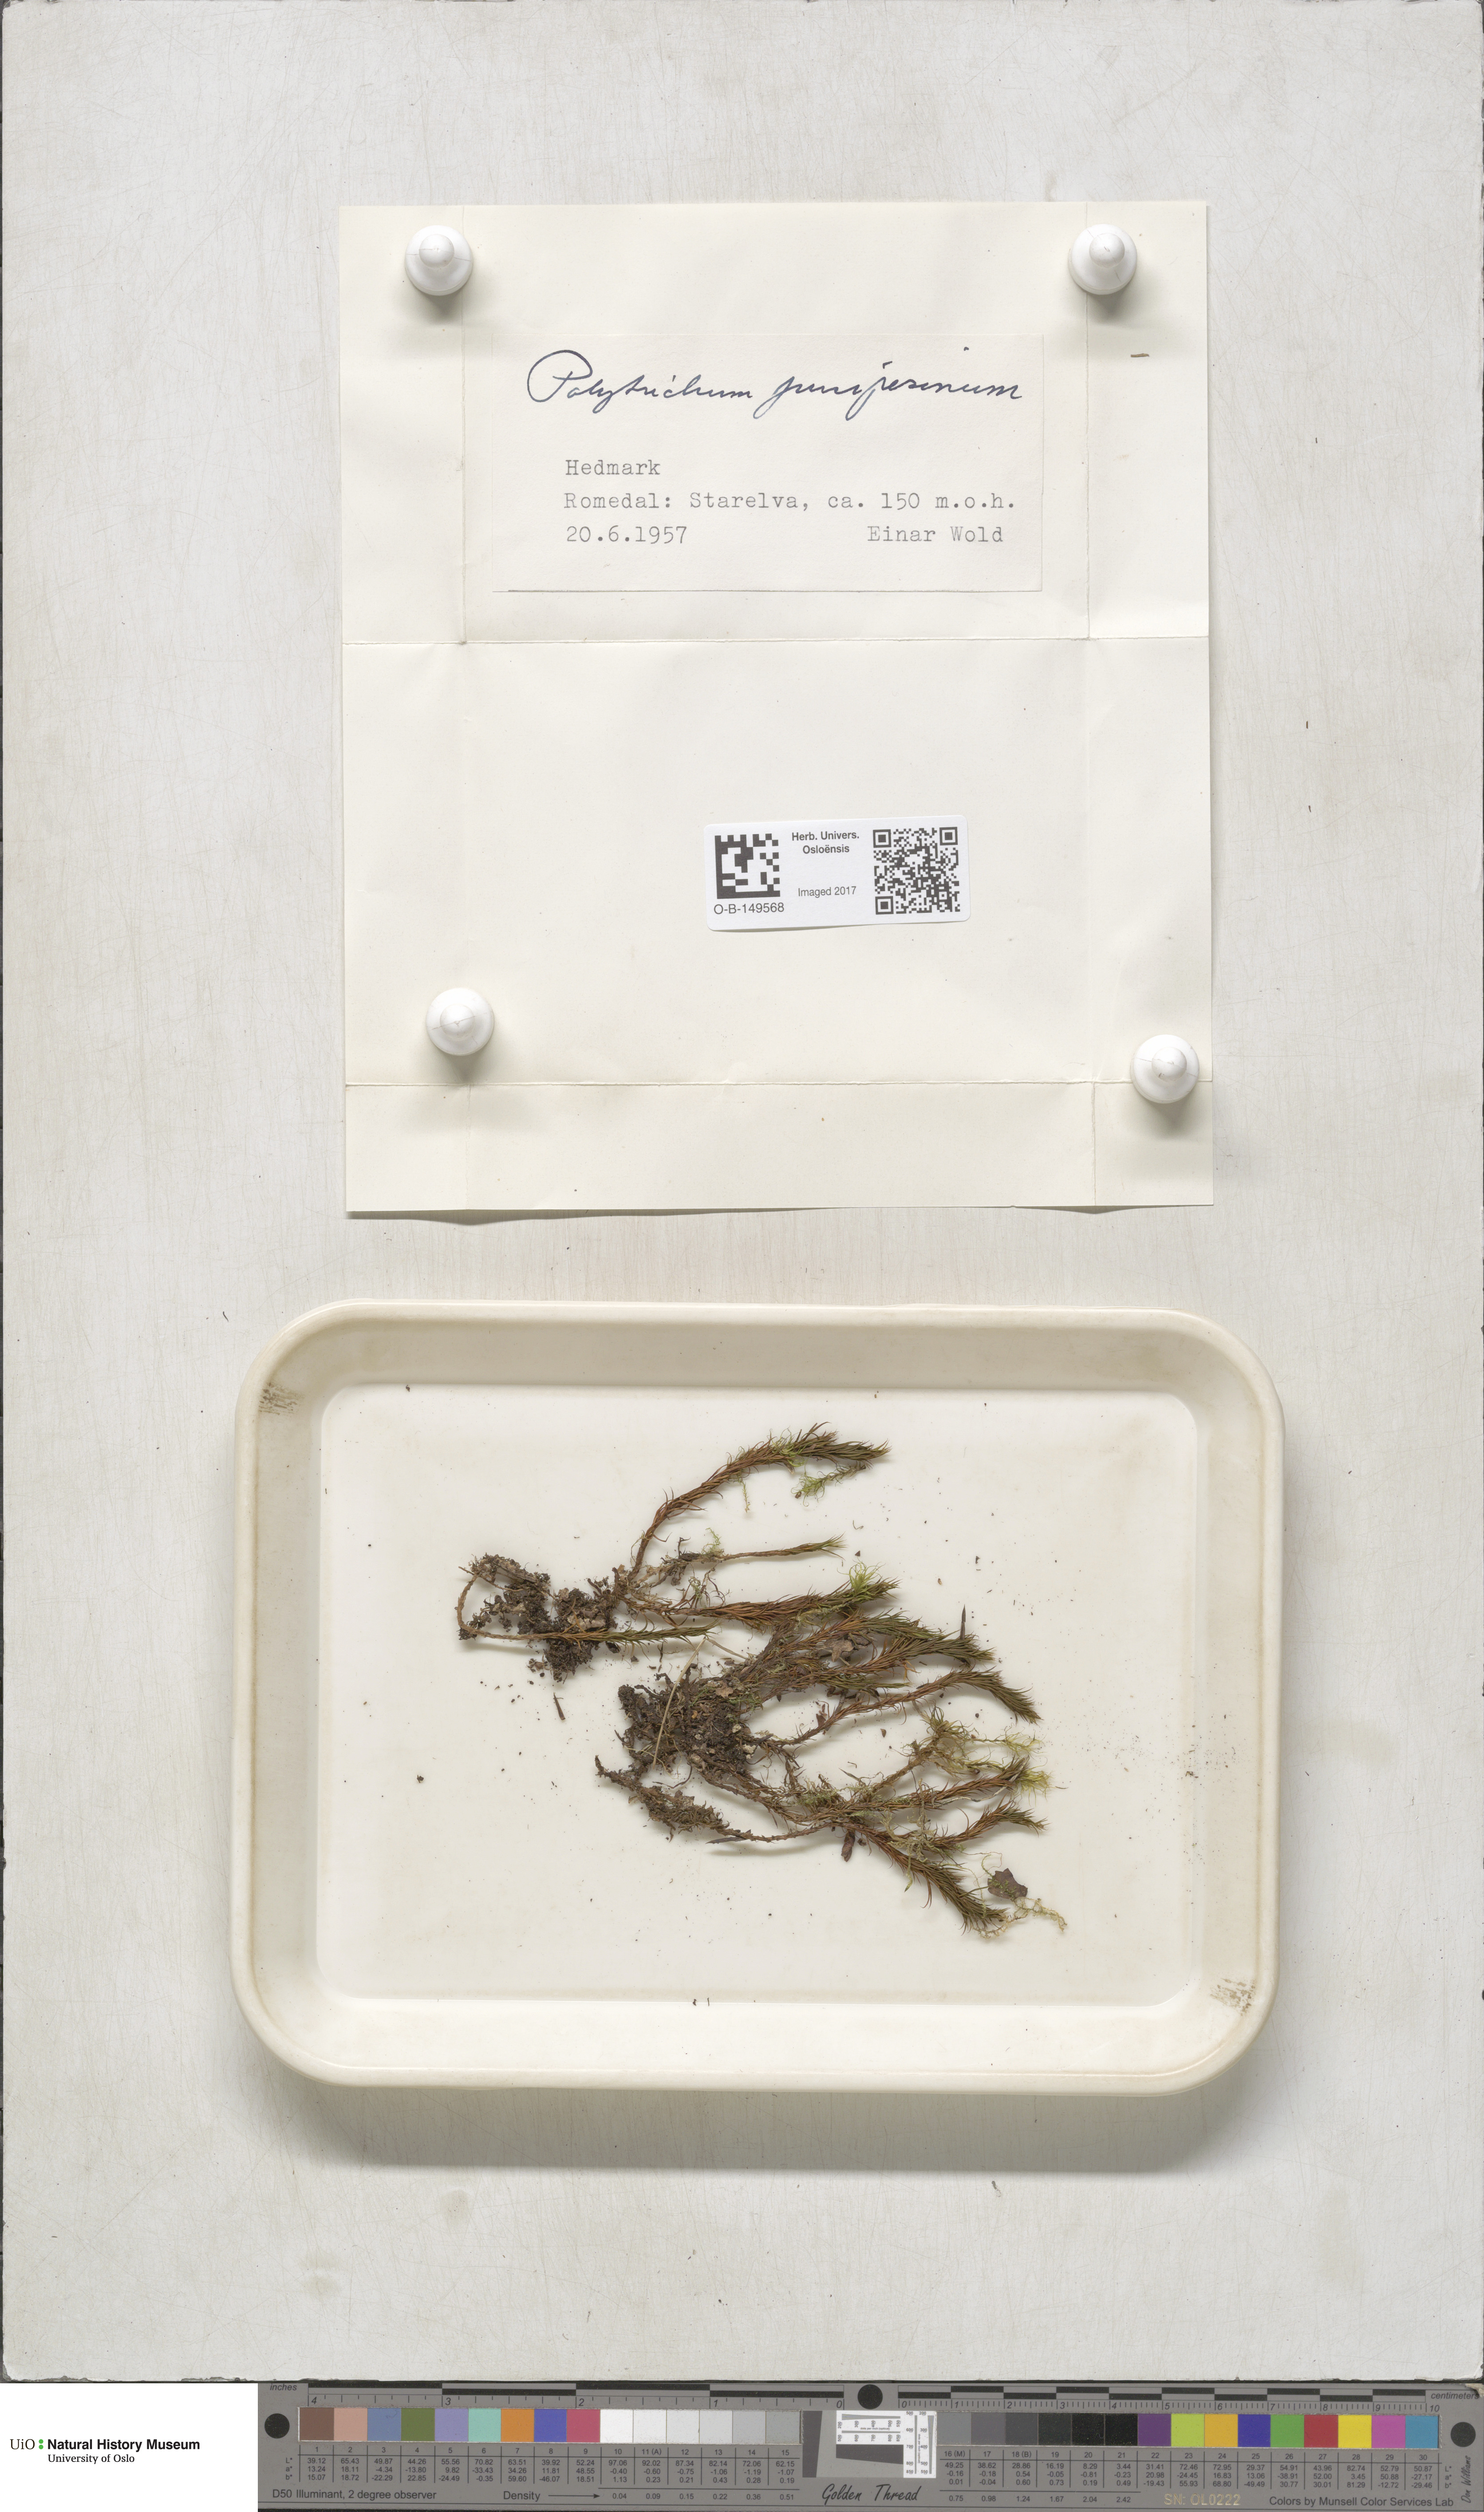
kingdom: Plantae
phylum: Bryophyta
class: Polytrichopsida
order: Polytrichales
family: Polytrichaceae
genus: Polytrichum
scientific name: Polytrichum juniperinum
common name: Juniper haircap moss
